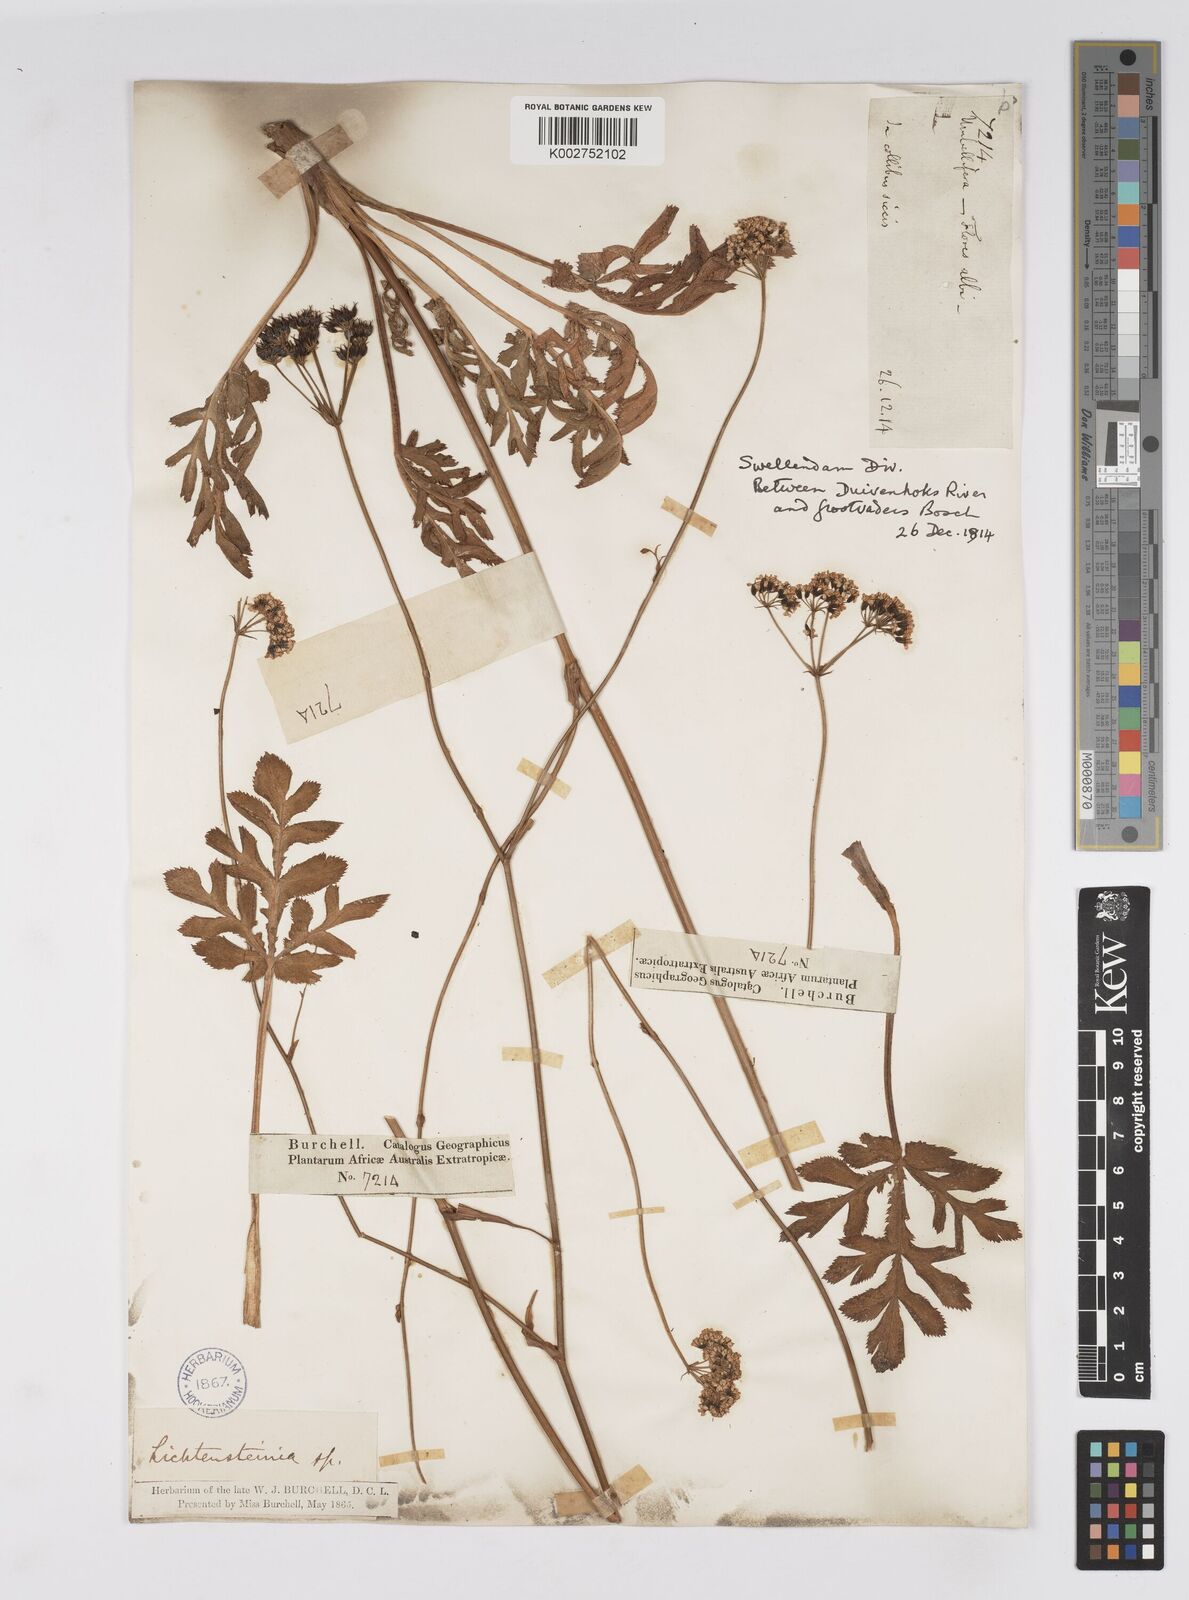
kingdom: Plantae
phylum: Tracheophyta
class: Magnoliopsida
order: Apiales
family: Apiaceae
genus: Lichtensteinia
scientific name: Lichtensteinia interrupta
